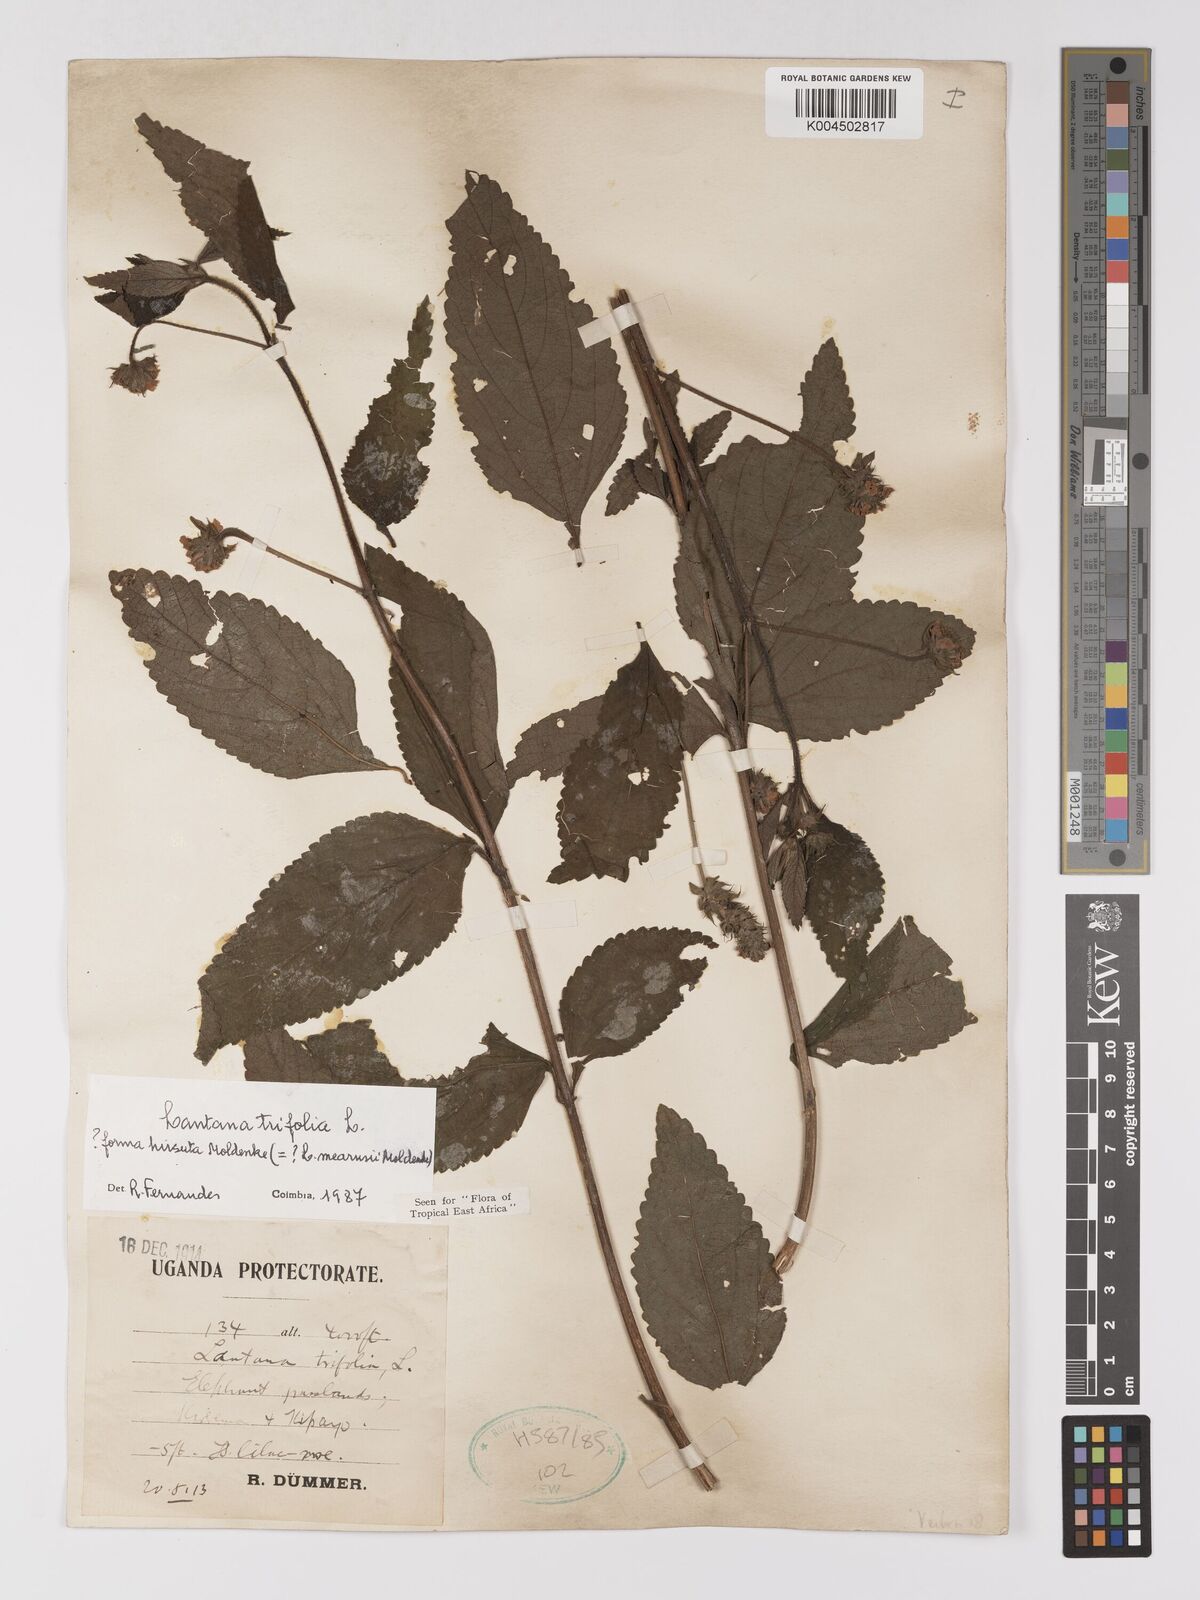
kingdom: Plantae
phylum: Tracheophyta
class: Magnoliopsida
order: Lamiales
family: Verbenaceae
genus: Lantana
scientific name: Lantana trifolia
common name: Sweet-sage
